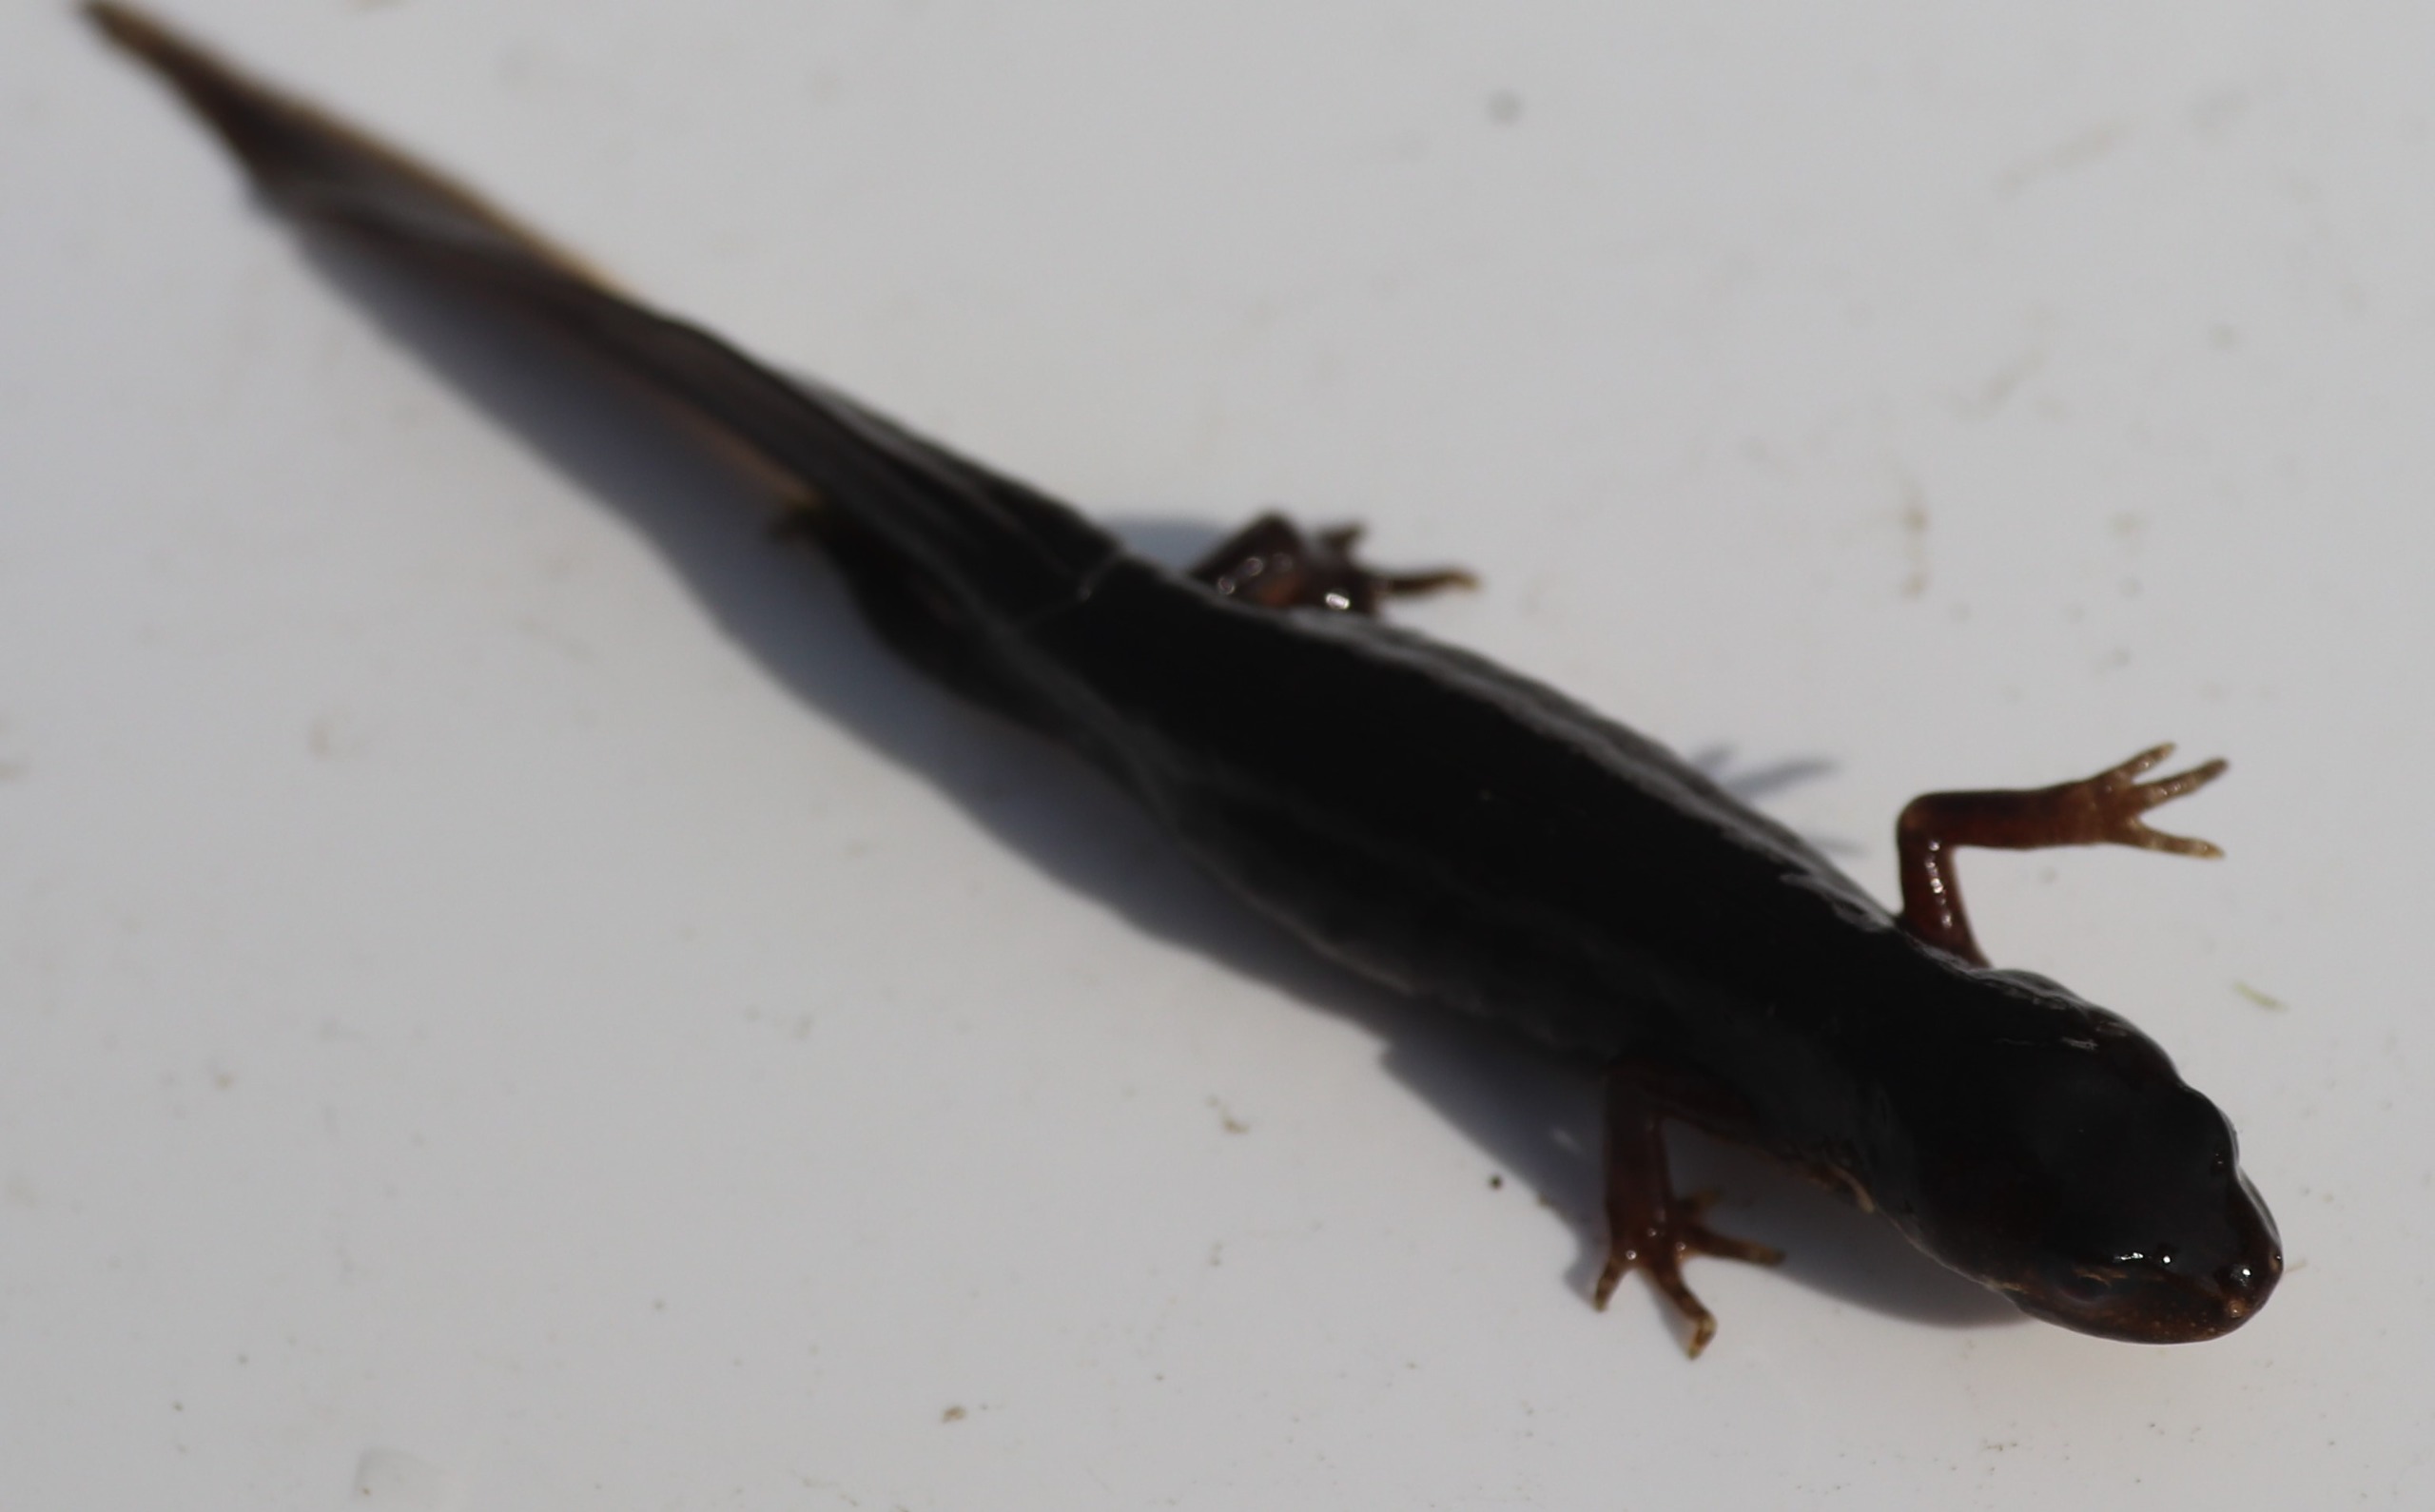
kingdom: Animalia
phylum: Chordata
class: Amphibia
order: Caudata
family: Salamandridae
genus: Lissotriton
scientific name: Lissotriton vulgaris
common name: Lille vandsalamander
